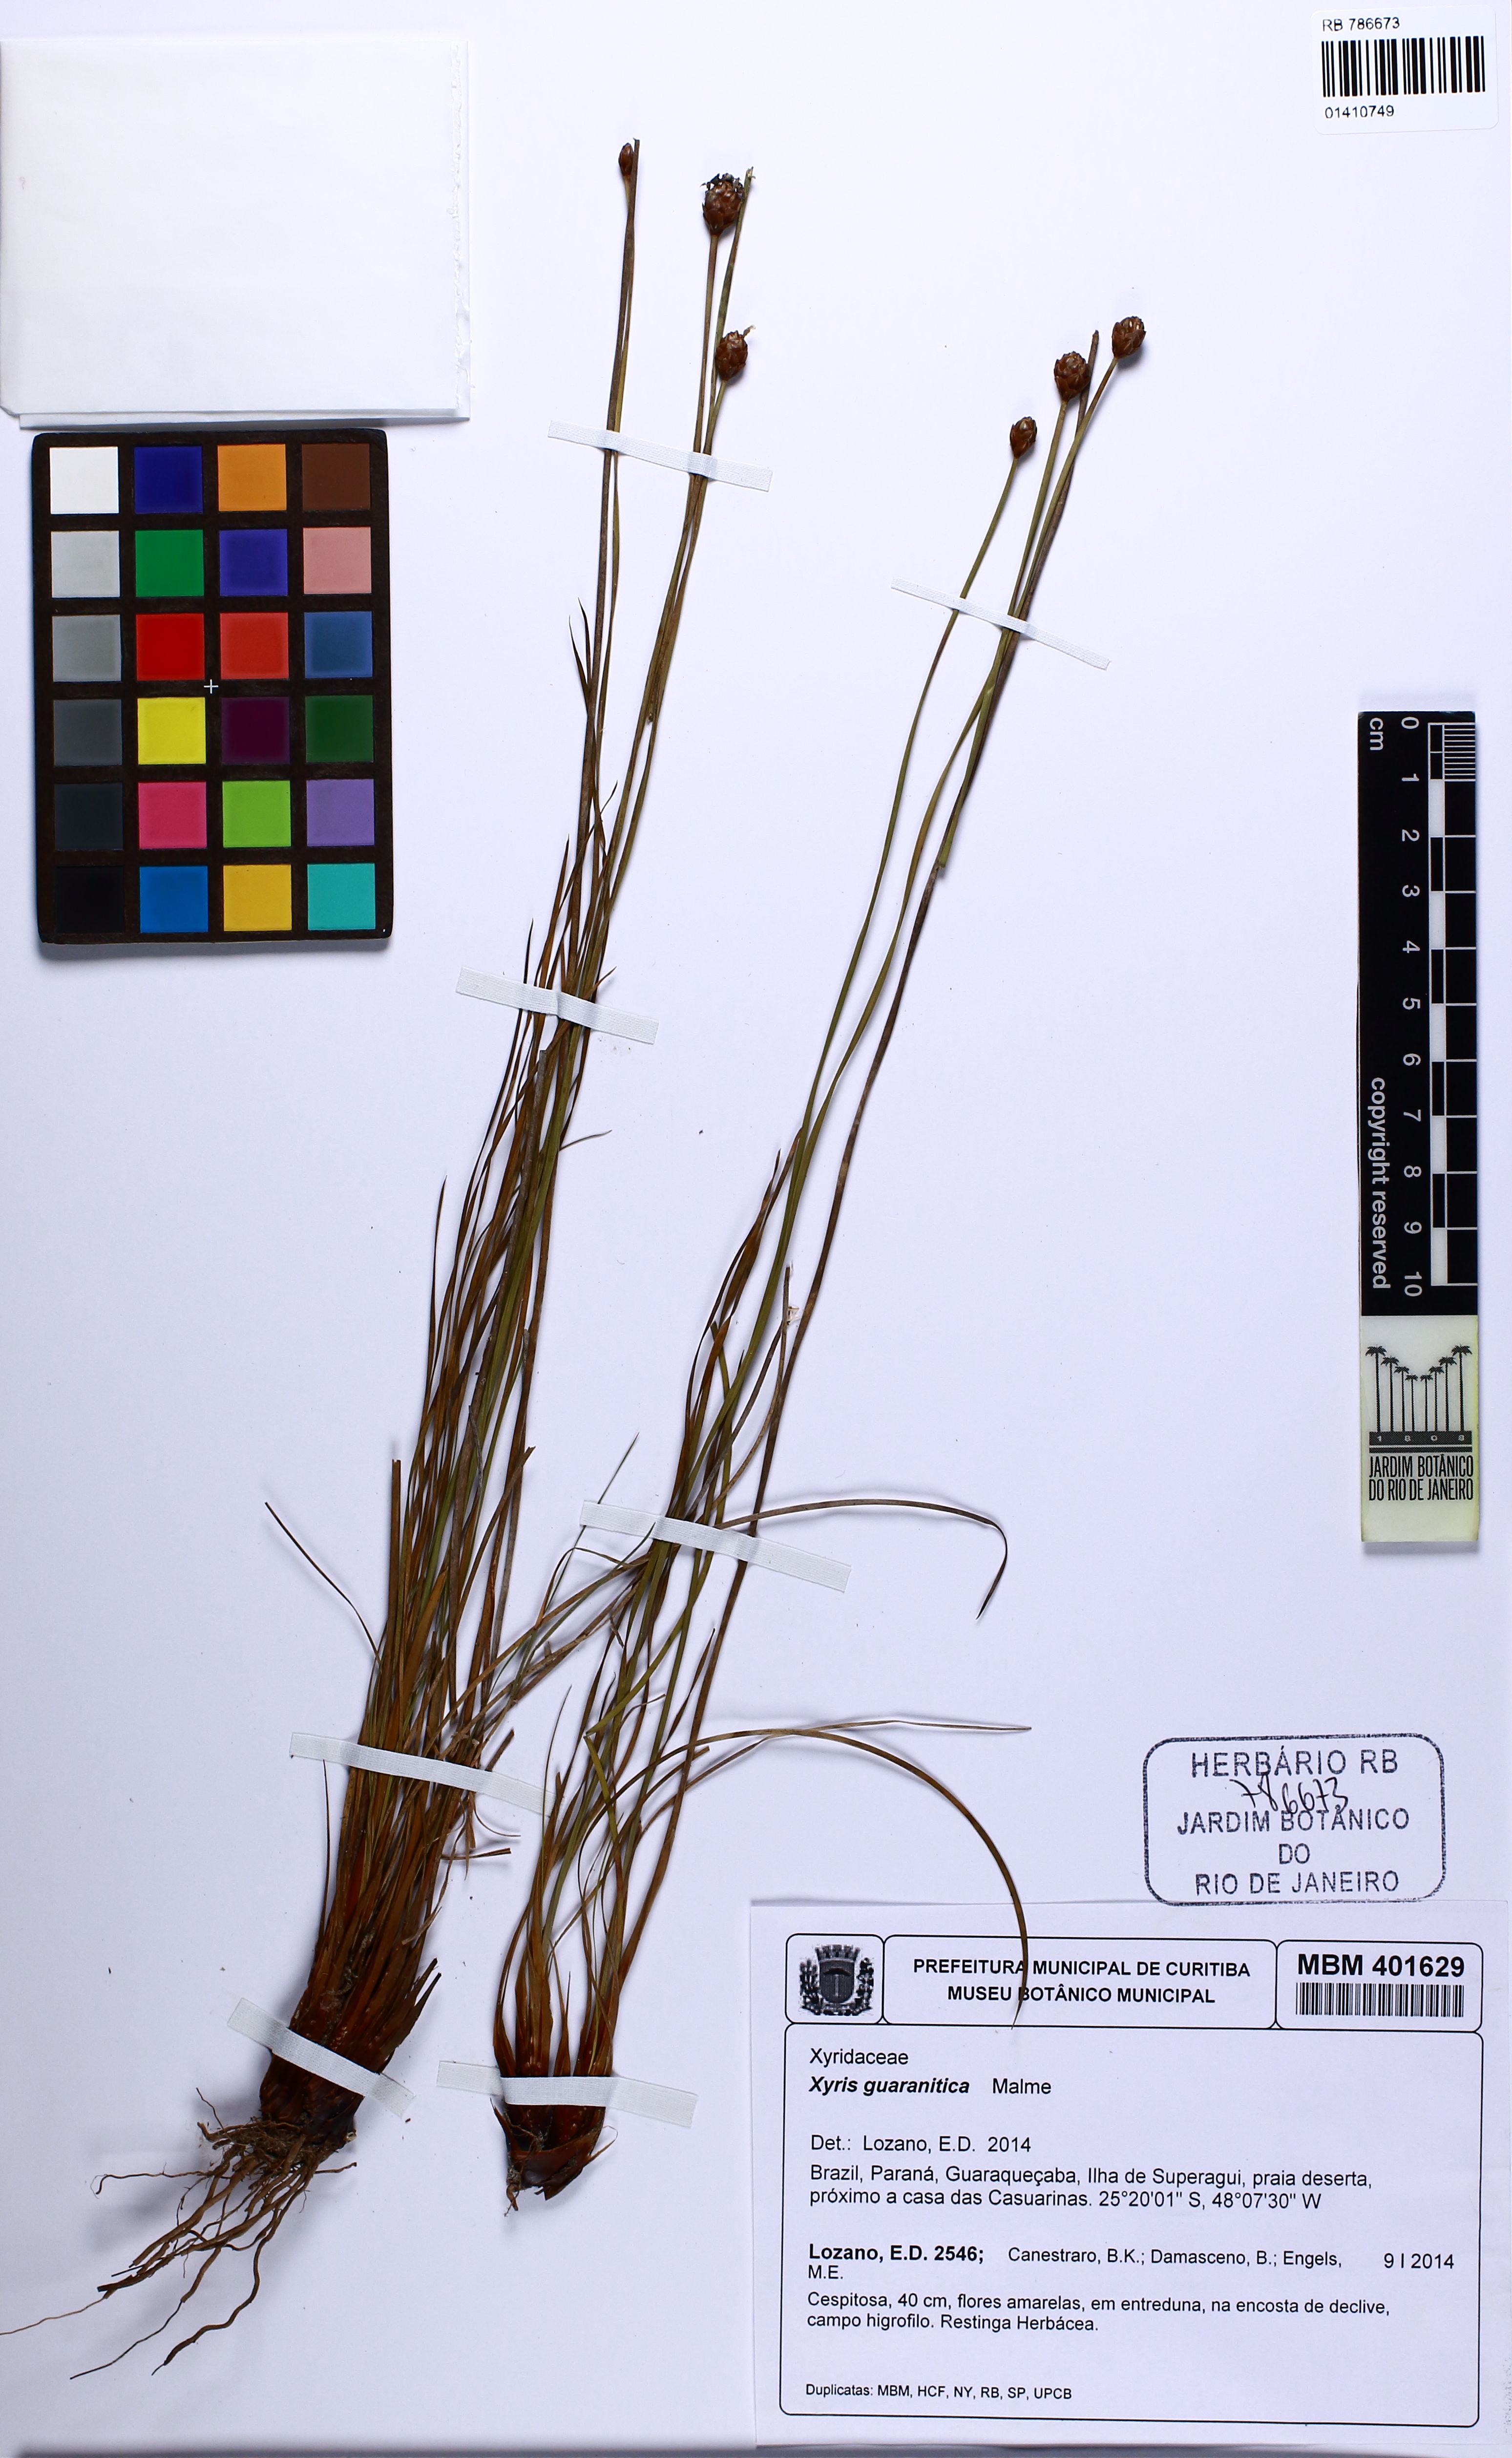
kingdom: Plantae
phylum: Tracheophyta
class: Liliopsida
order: Poales
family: Xyridaceae
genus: Xyris
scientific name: Xyris guaranitica
